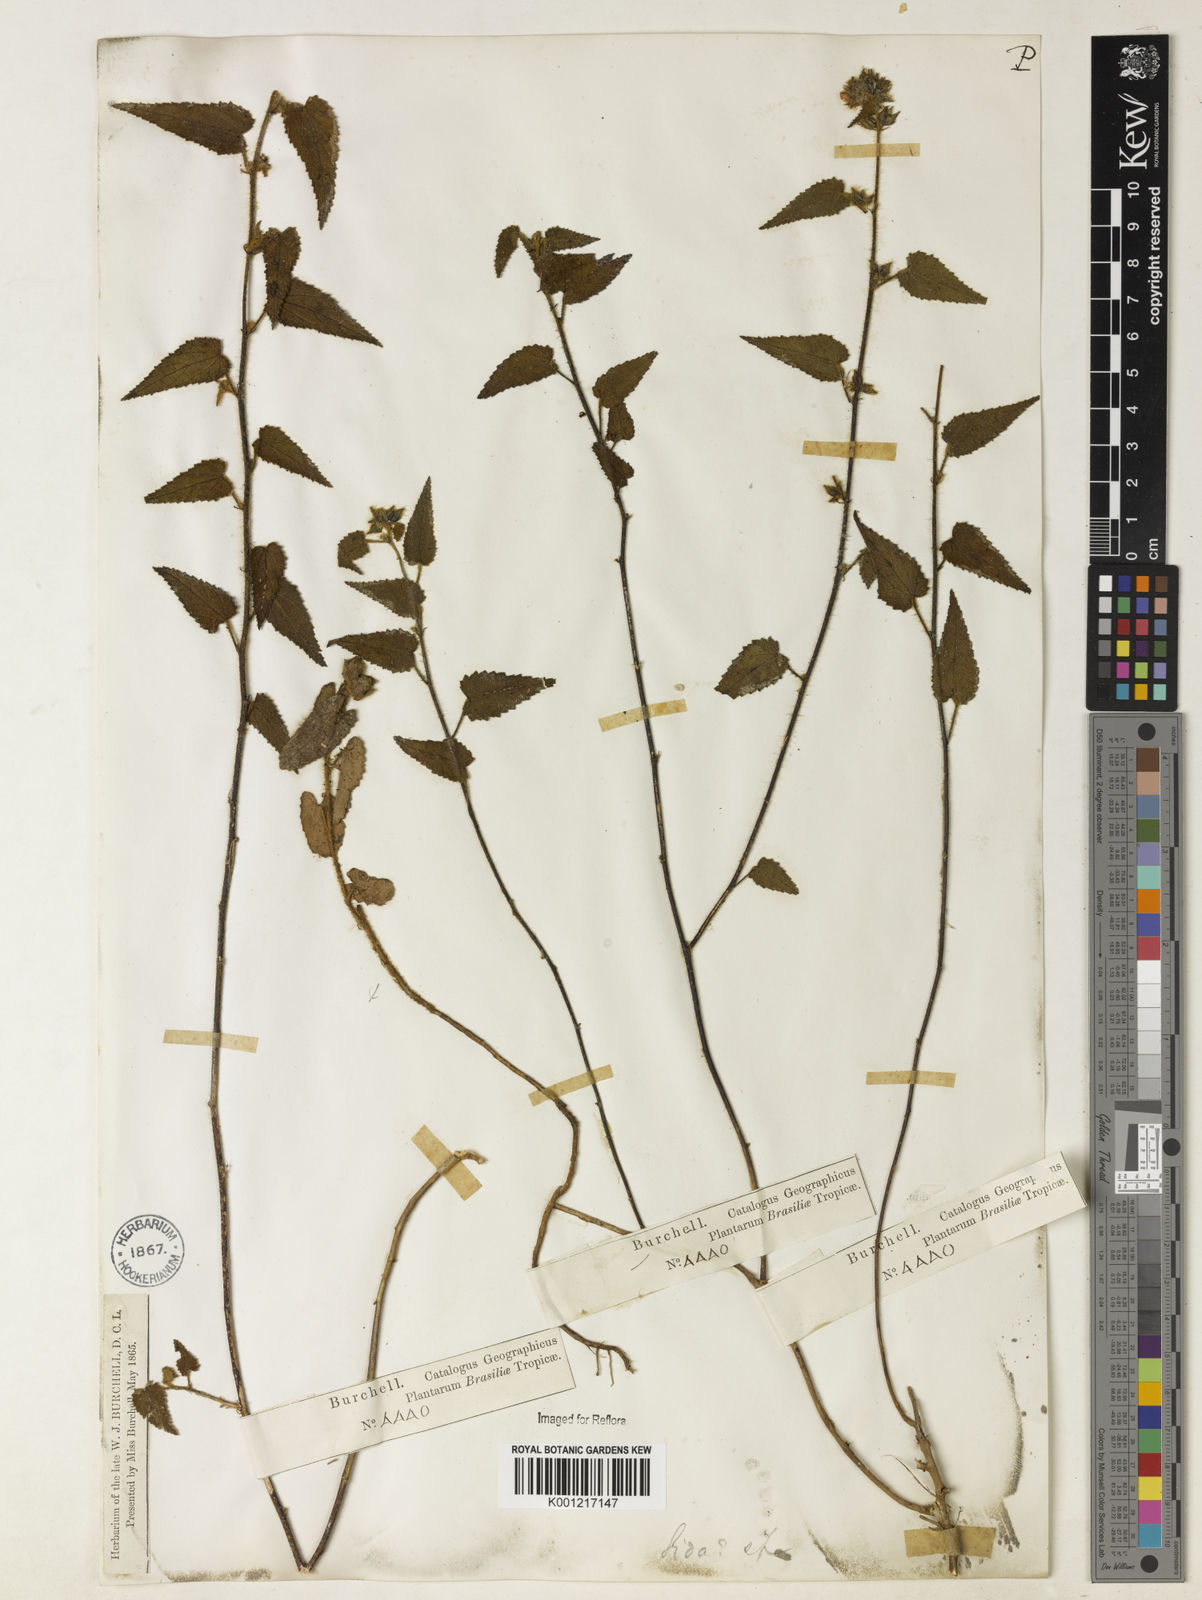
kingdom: Plantae
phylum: Tracheophyta
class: Magnoliopsida
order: Malvales
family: Malvaceae
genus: Sida
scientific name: Sida
